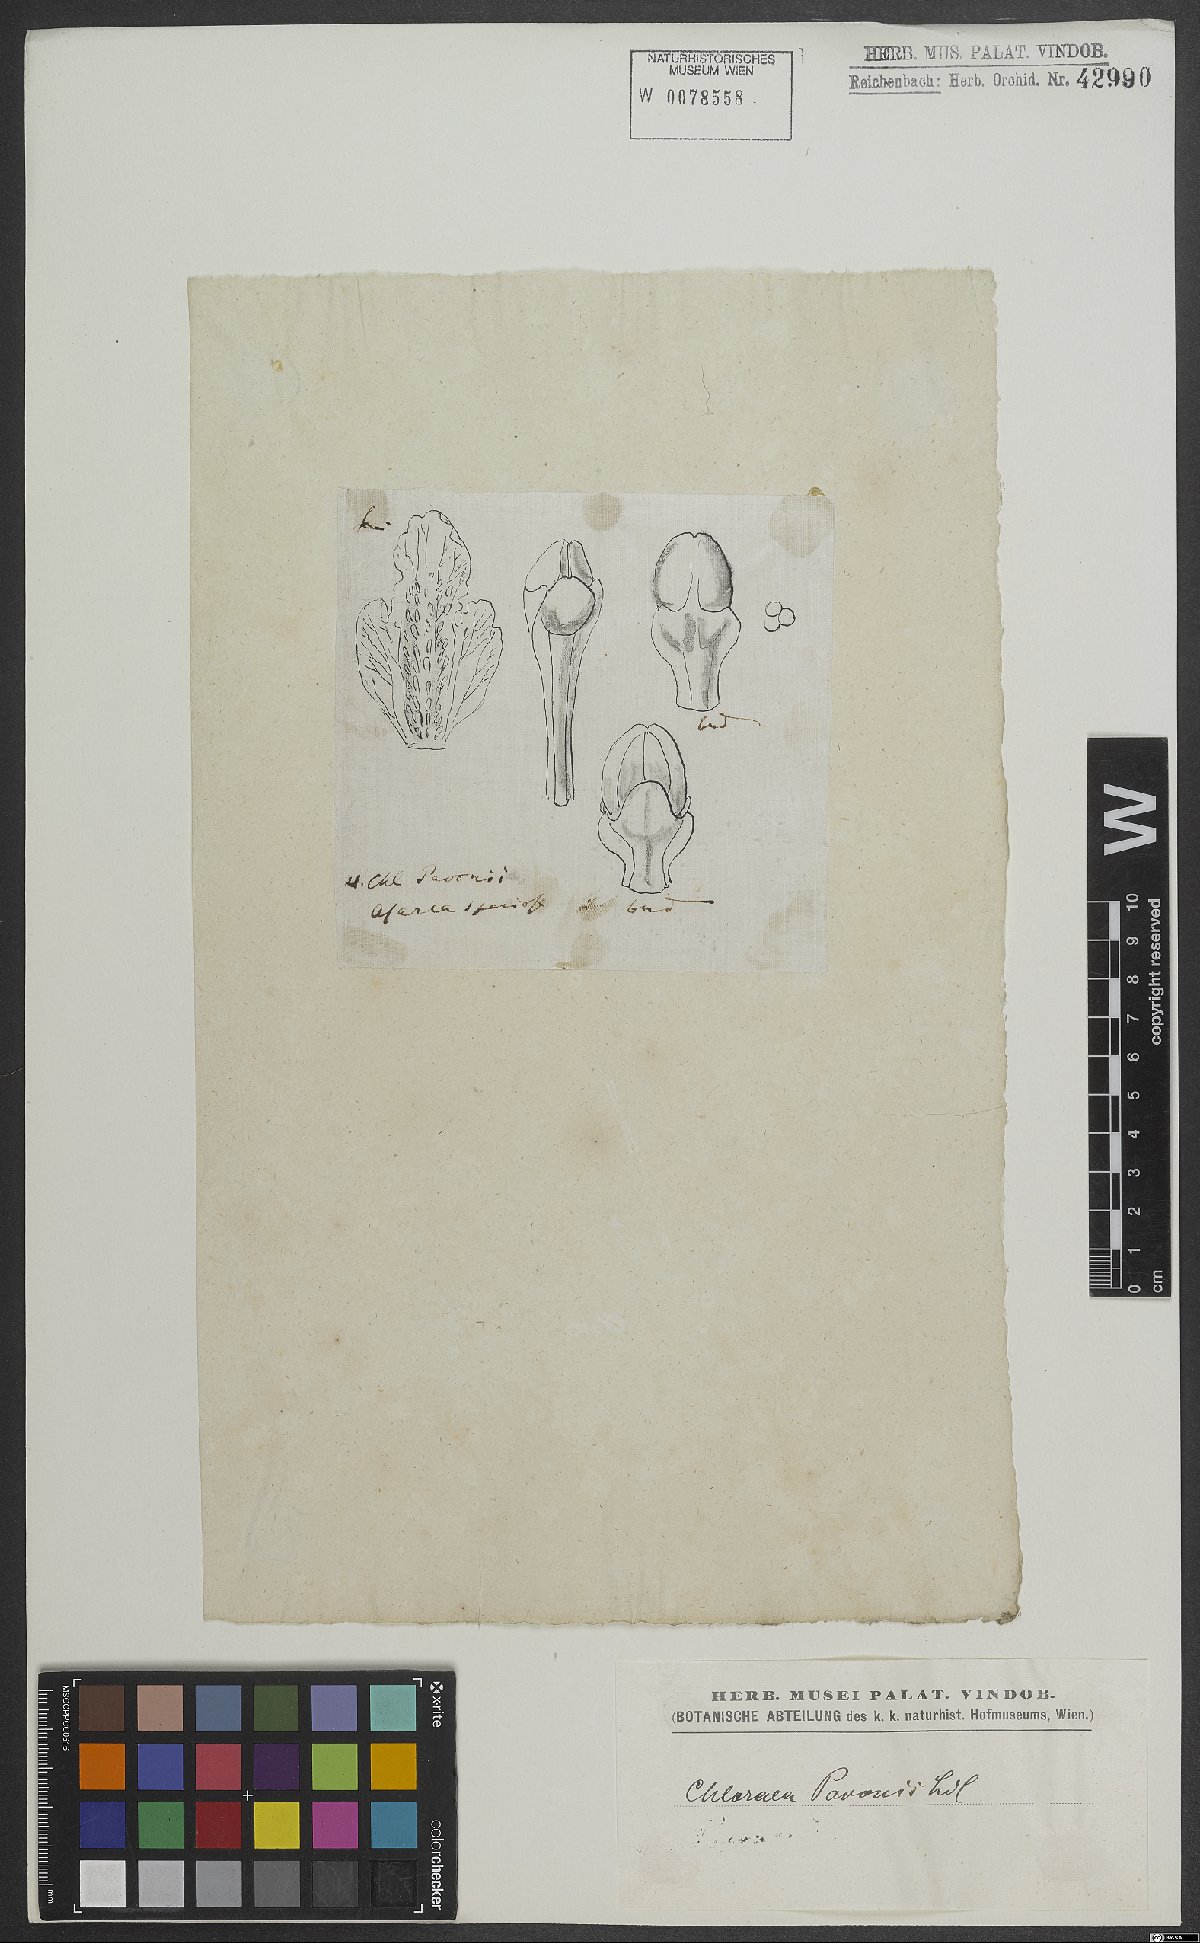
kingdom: Plantae
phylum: Tracheophyta
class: Liliopsida
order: Asparagales
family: Orchidaceae
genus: Chloraea
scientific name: Chloraea pavonii
